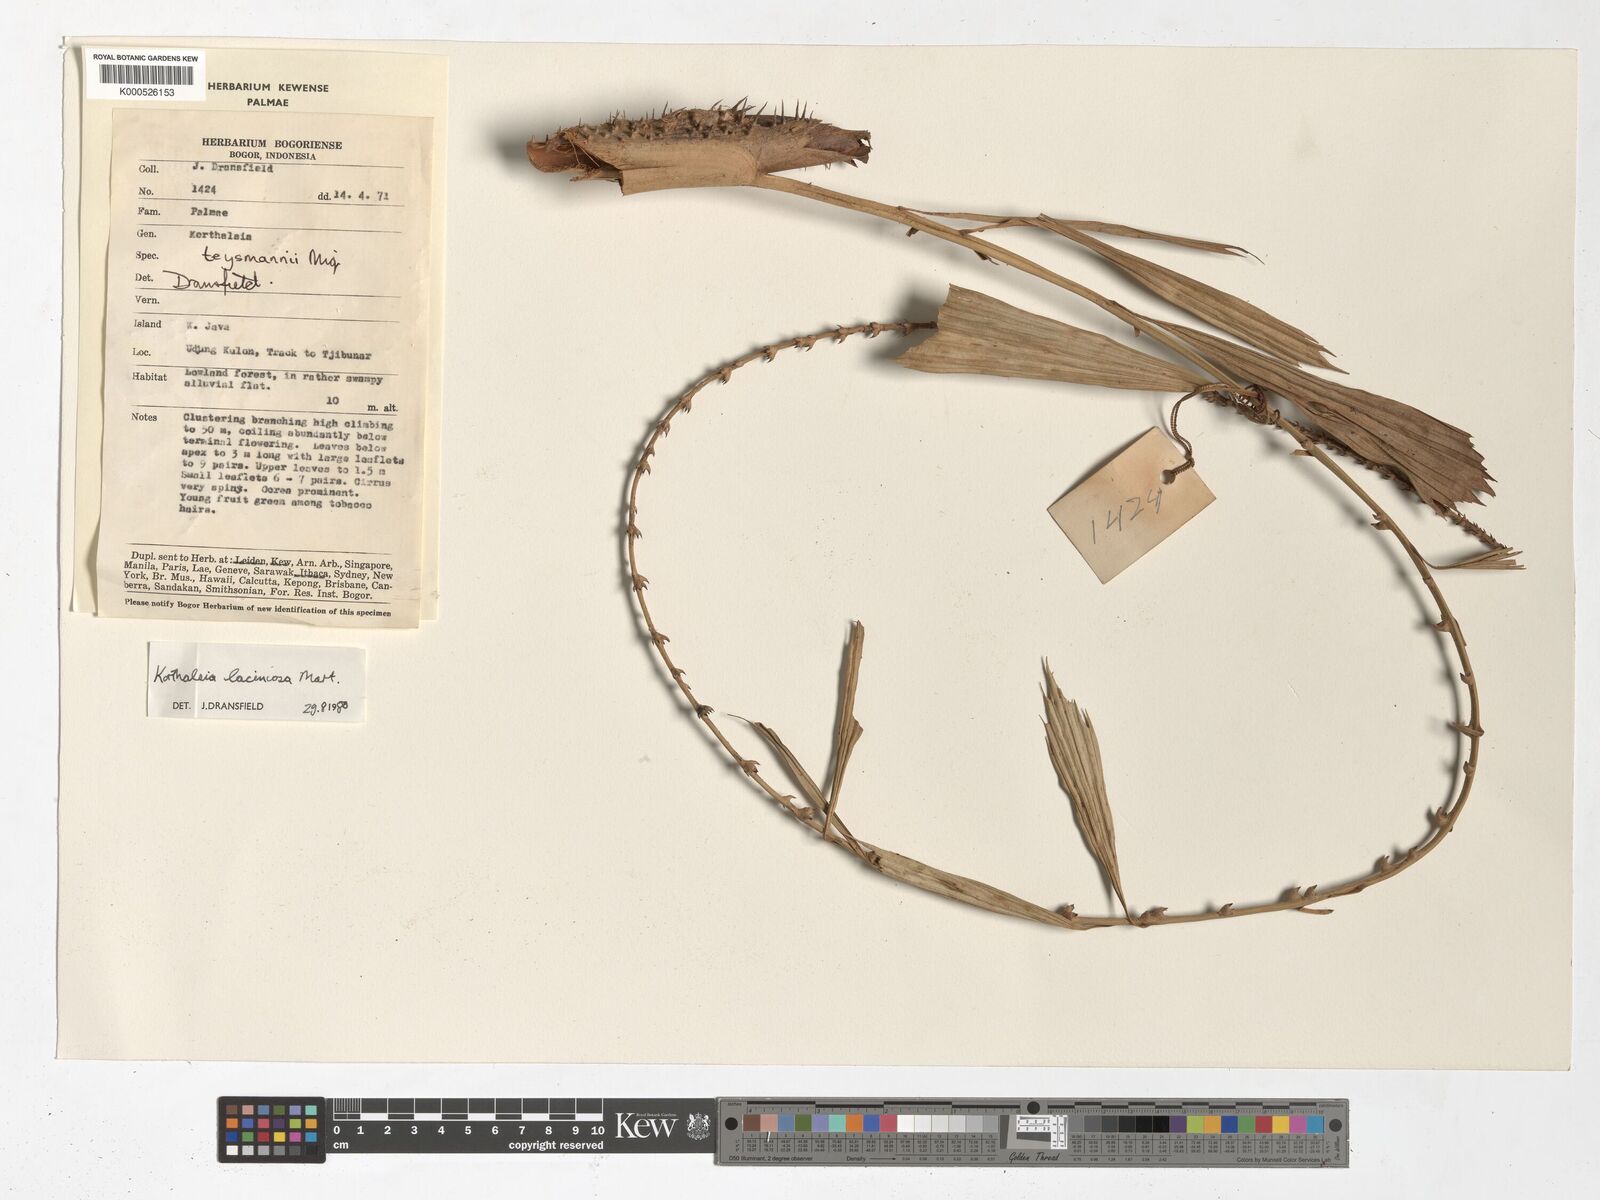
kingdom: Plantae
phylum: Tracheophyta
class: Liliopsida
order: Arecales
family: Arecaceae
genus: Korthalsia
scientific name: Korthalsia laciniosa
